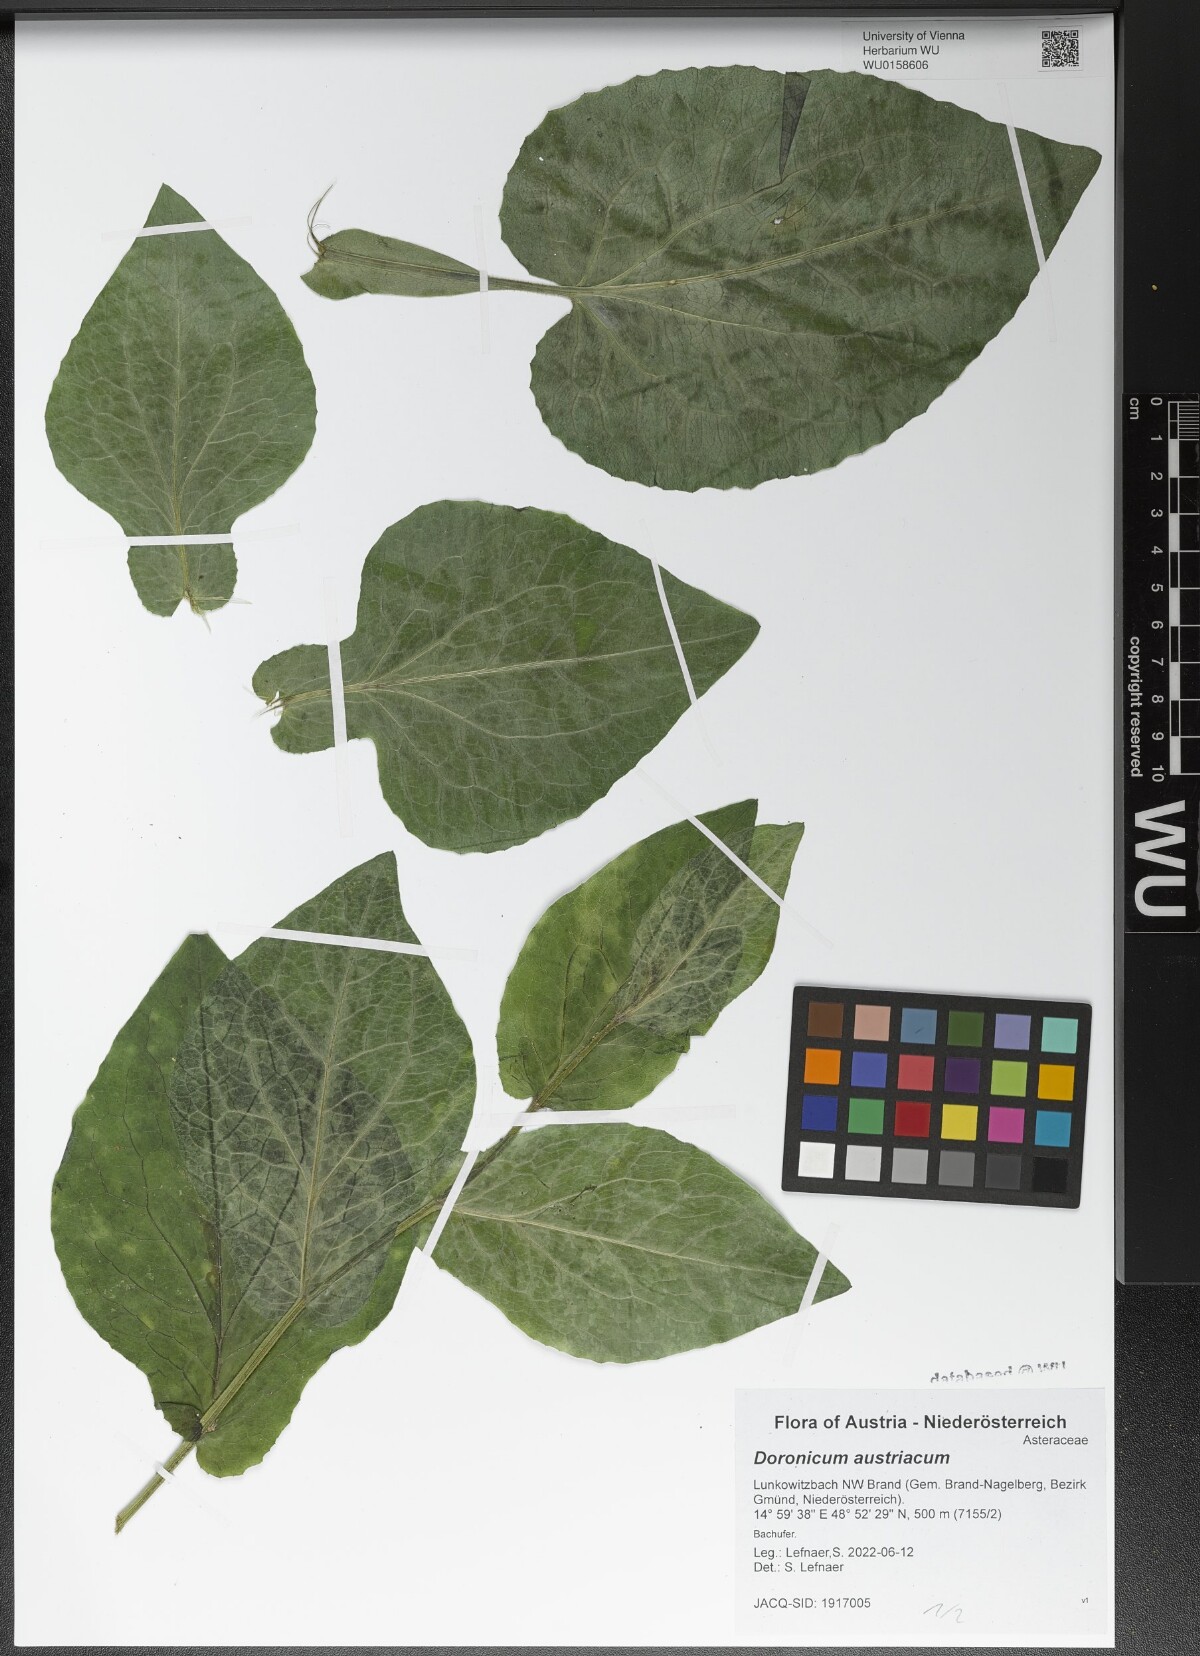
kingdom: Plantae
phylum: Tracheophyta
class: Magnoliopsida
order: Asterales
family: Asteraceae
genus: Doronicum
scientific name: Doronicum austriacum
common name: Austrian leopard's-bane
